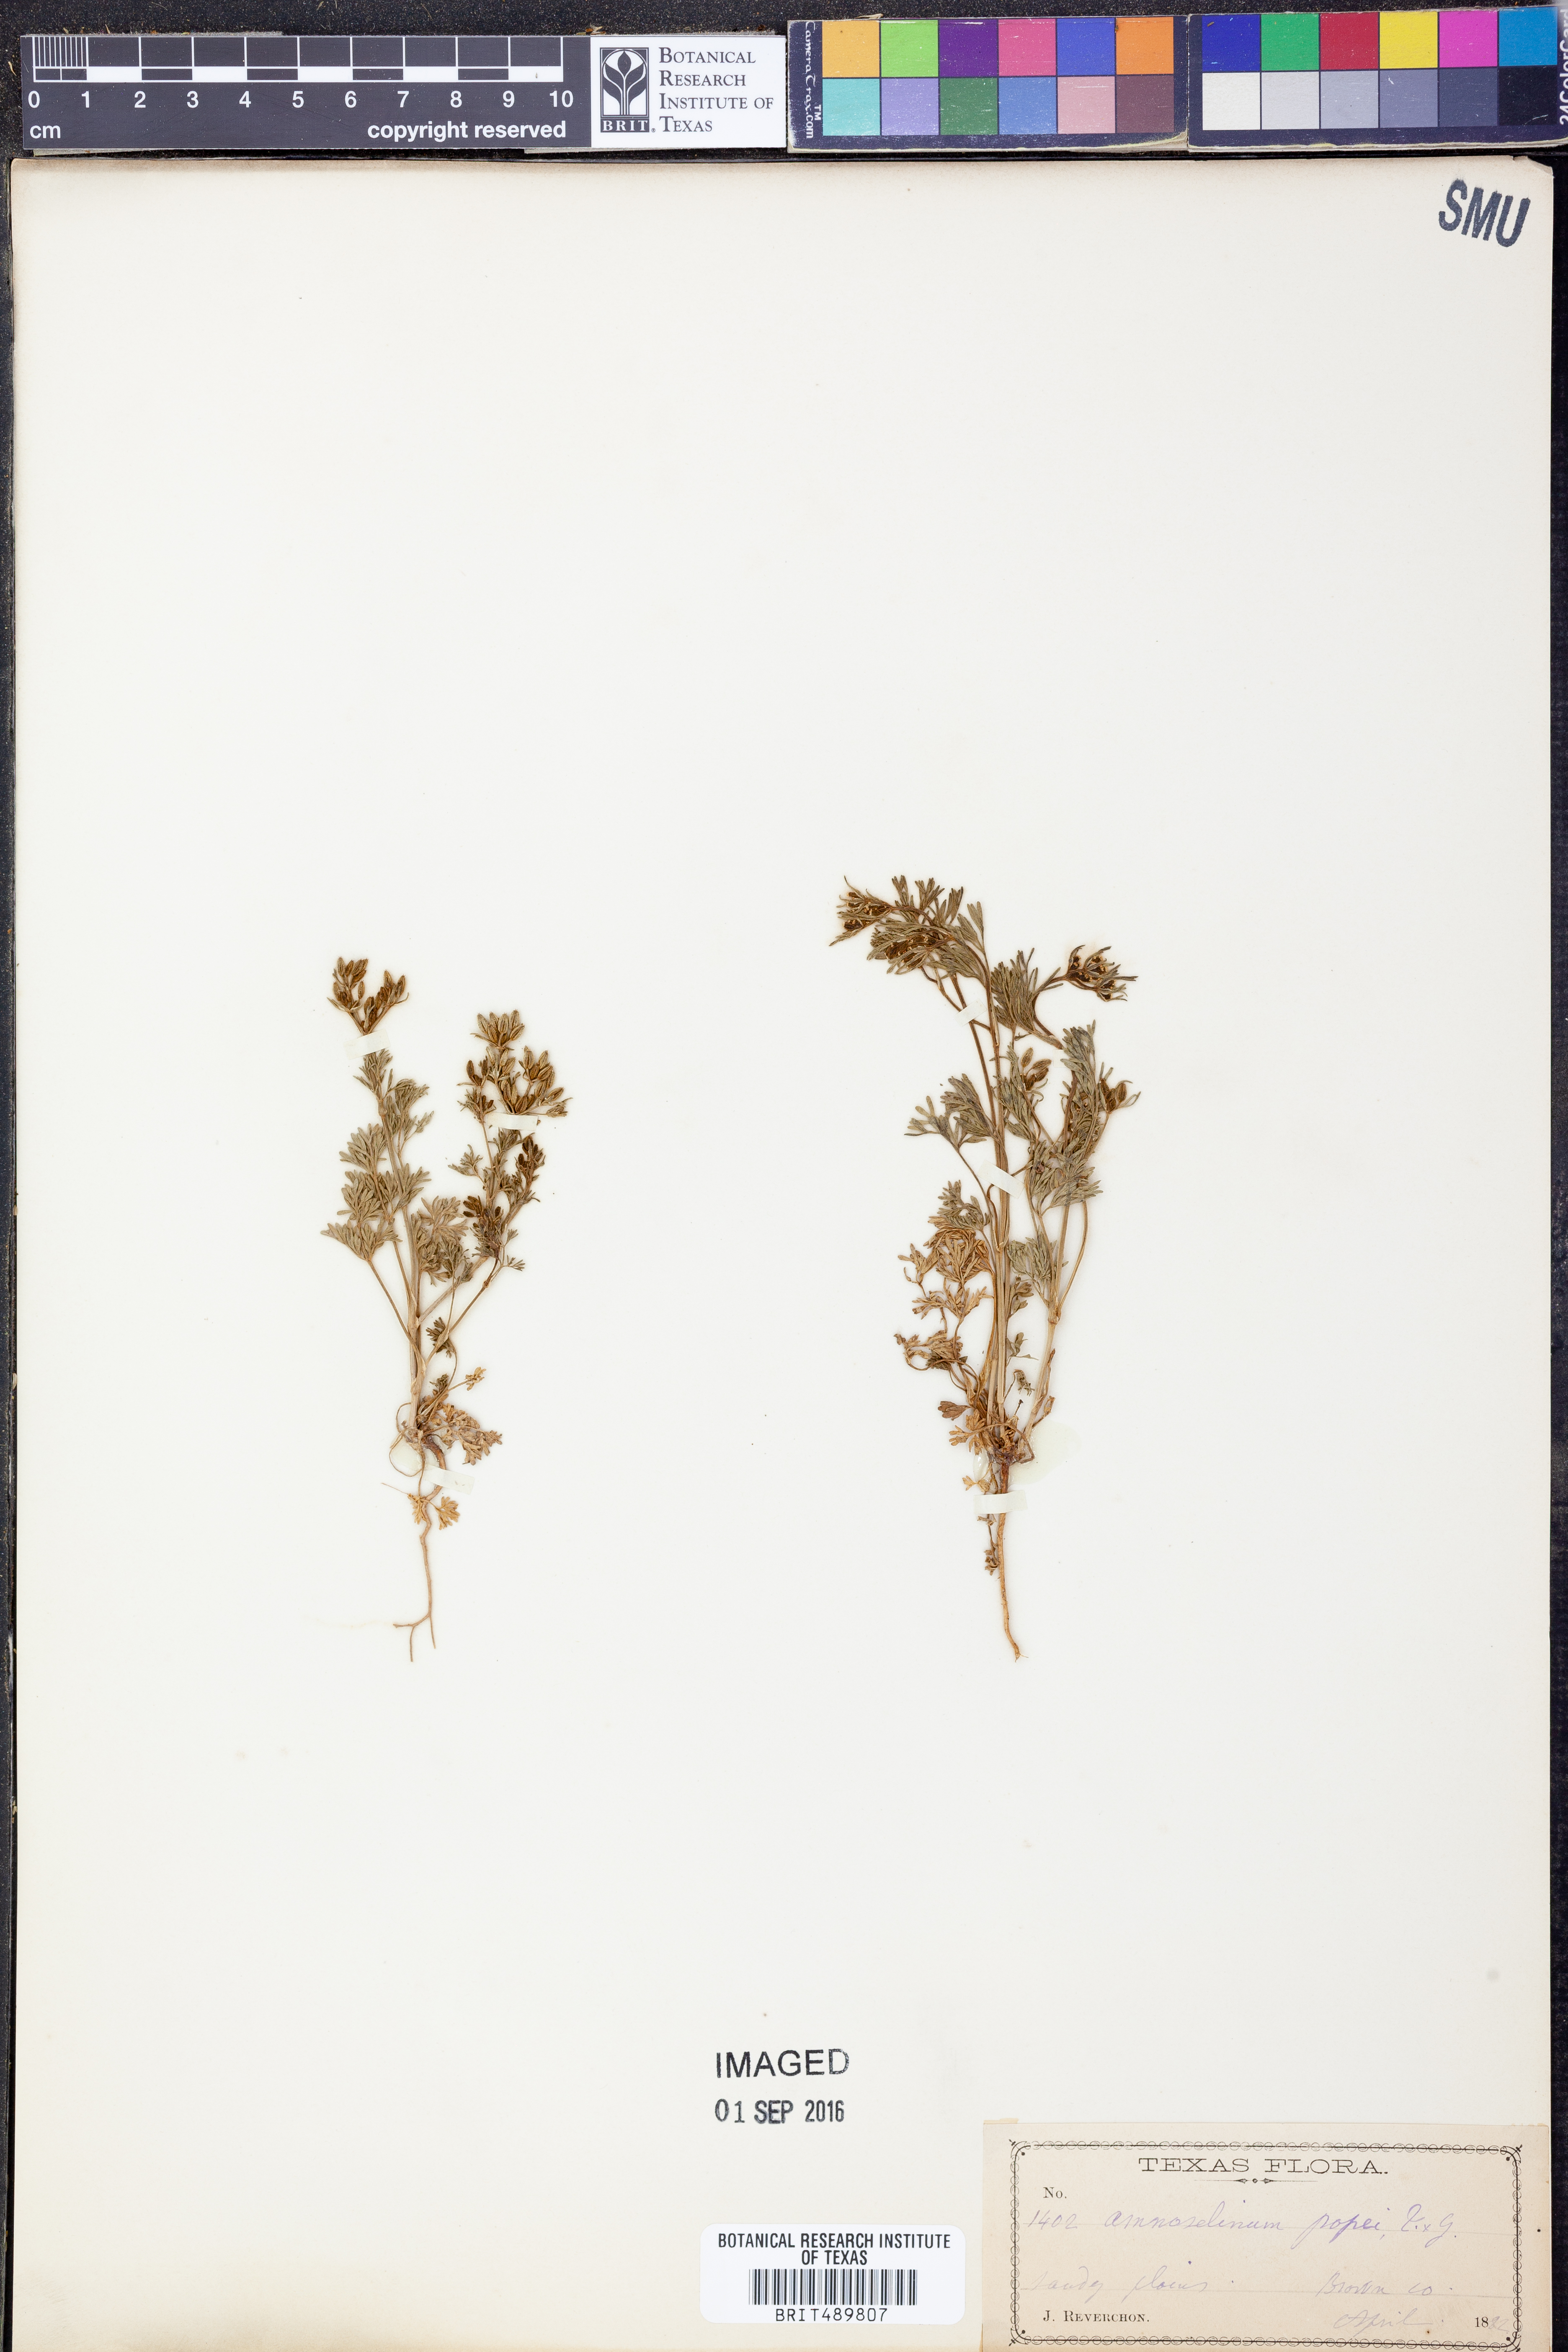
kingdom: Plantae
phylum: Tracheophyta
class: Magnoliopsida
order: Apiales
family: Apiaceae
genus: Ammoselinum
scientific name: Ammoselinum popei
